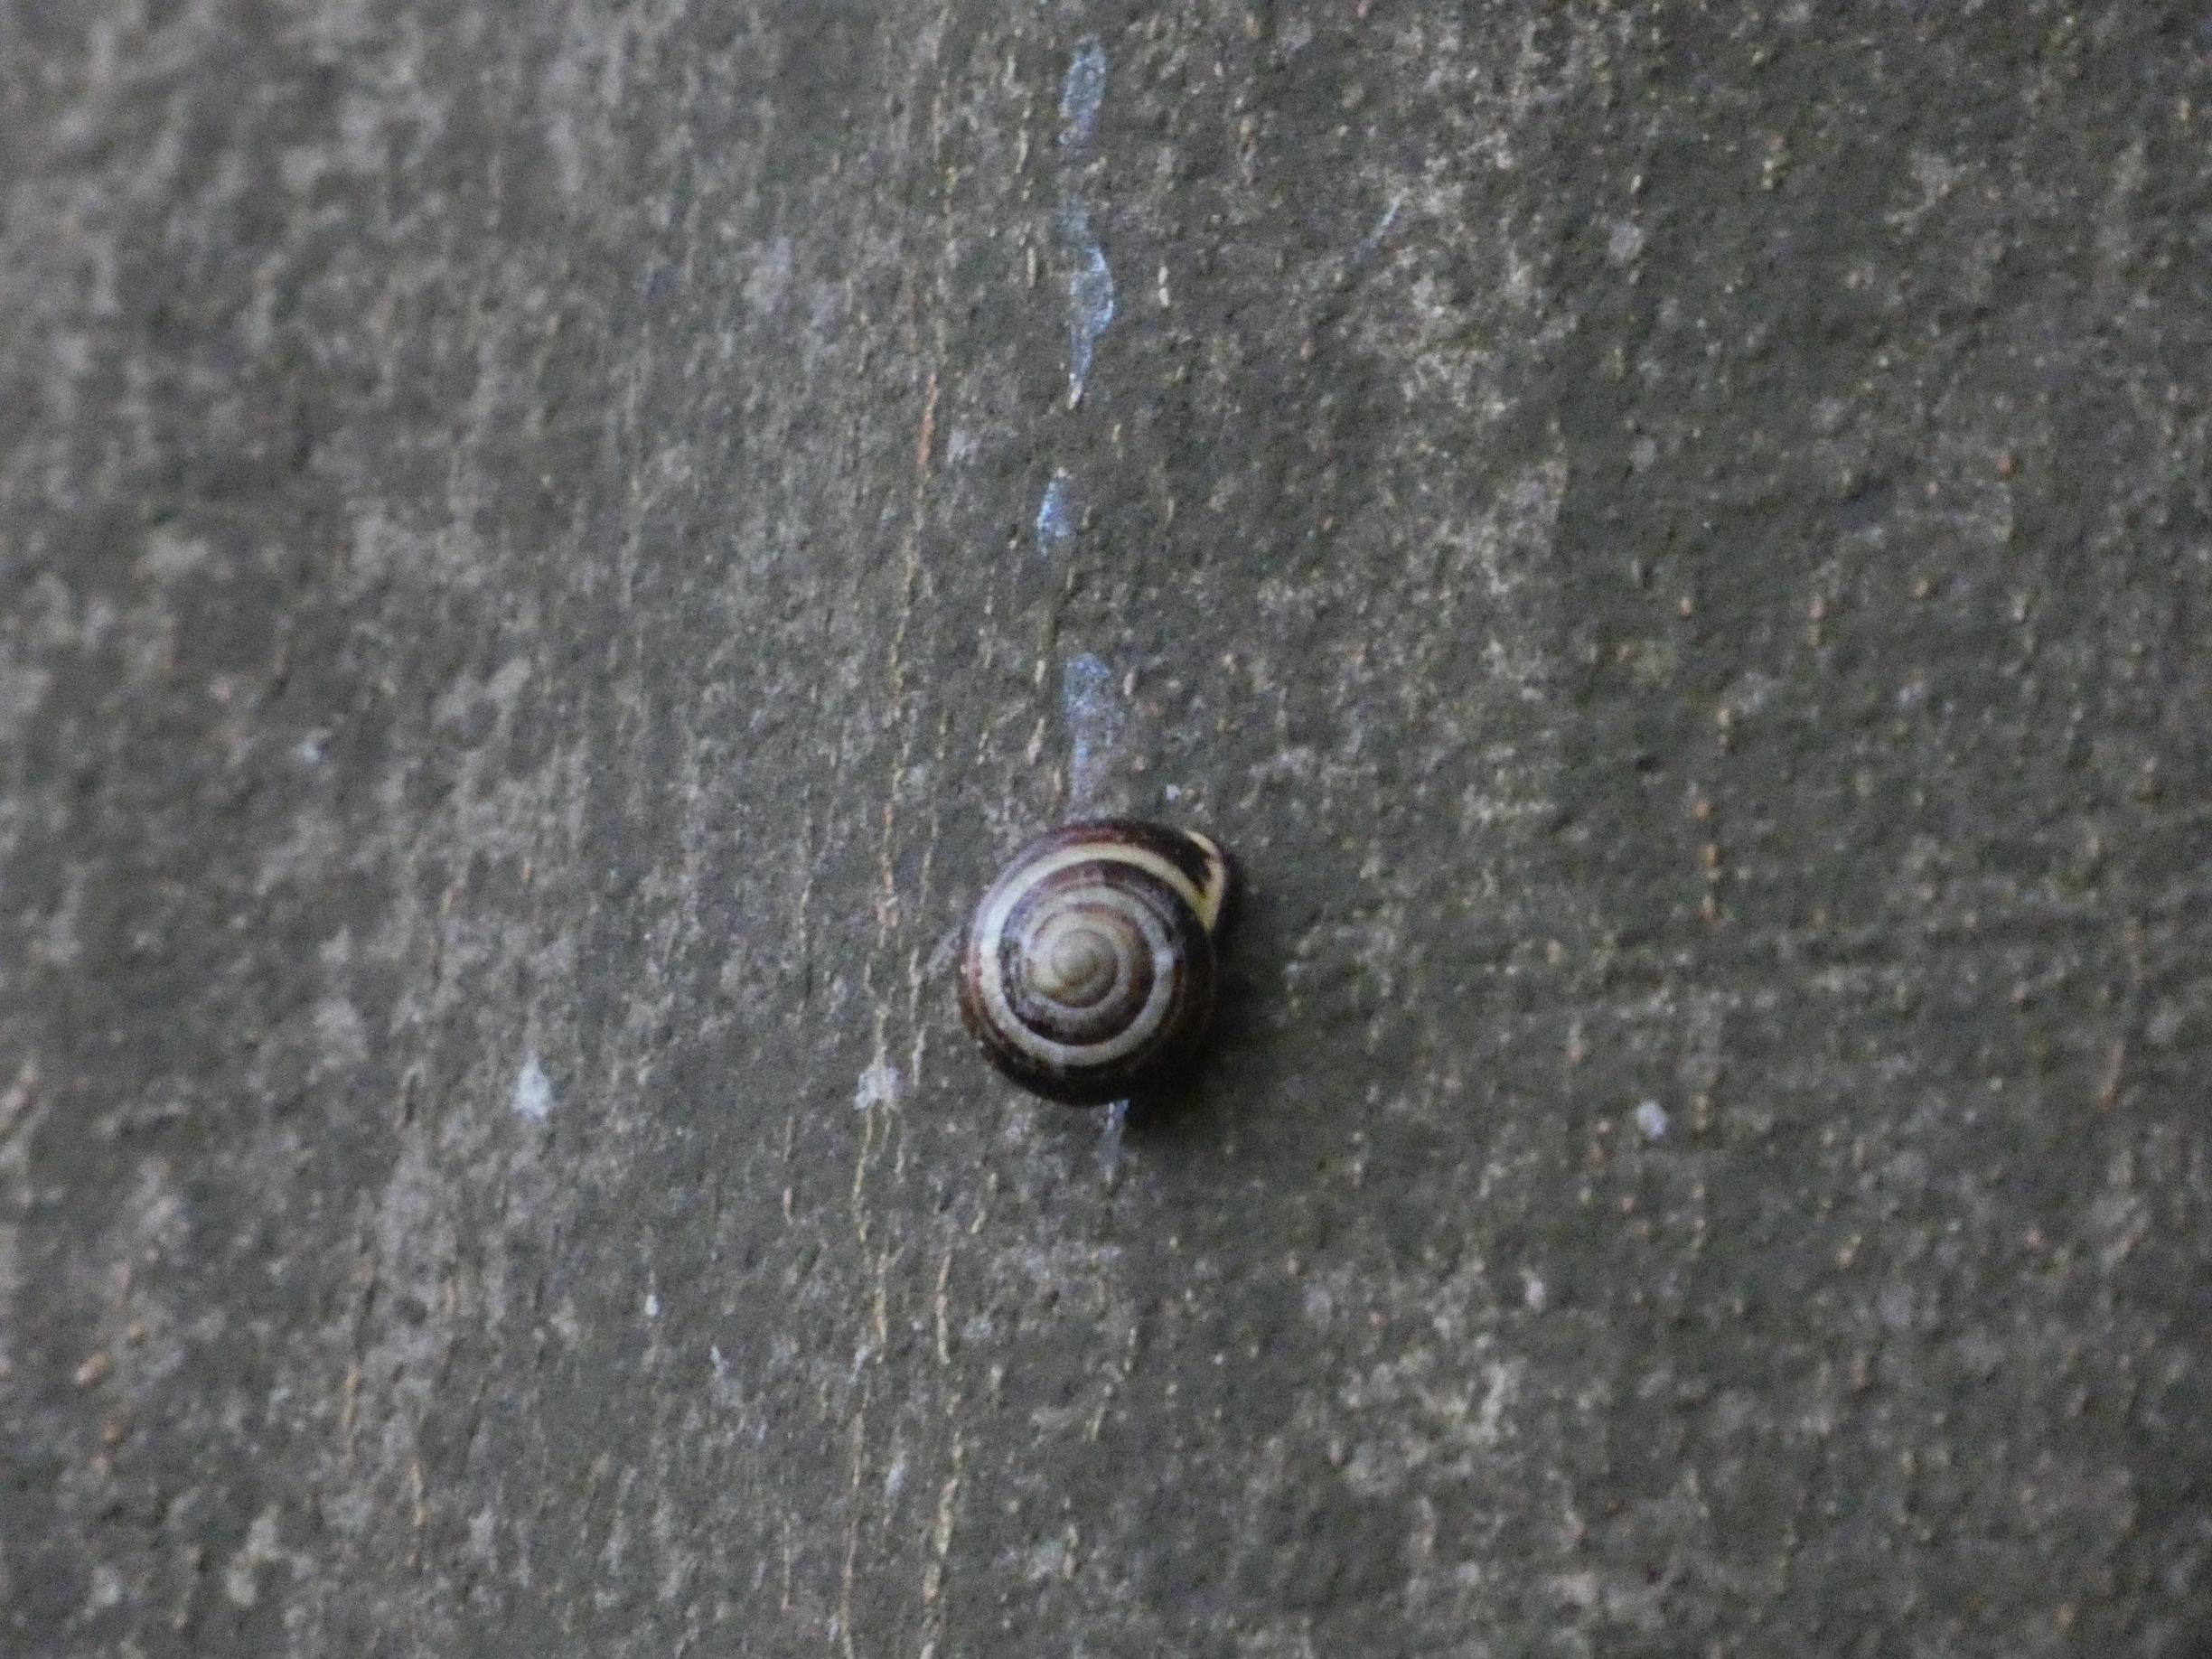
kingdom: Animalia
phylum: Mollusca
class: Gastropoda
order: Stylommatophora
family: Helicidae
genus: Cepaea
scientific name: Cepaea nemoralis
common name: Lundsnegl
